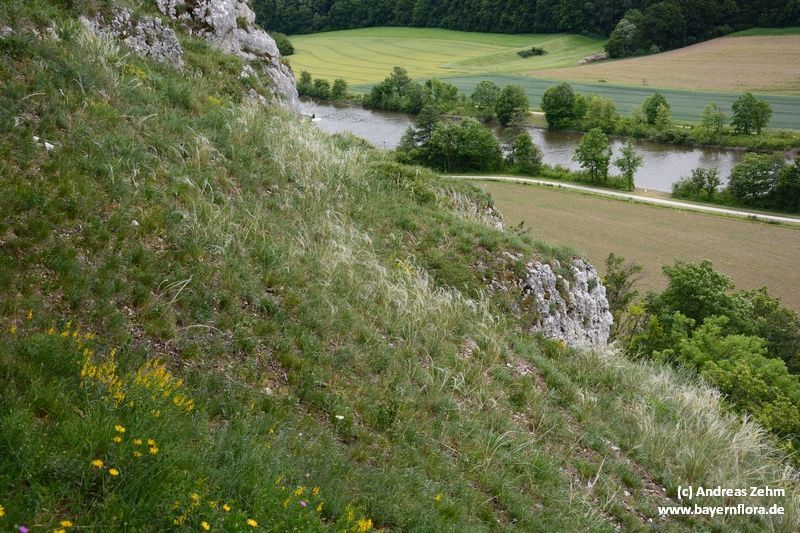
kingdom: Plantae
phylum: Tracheophyta
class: Liliopsida
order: Poales
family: Poaceae
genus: Stipa
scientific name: Stipa pulcherrima
